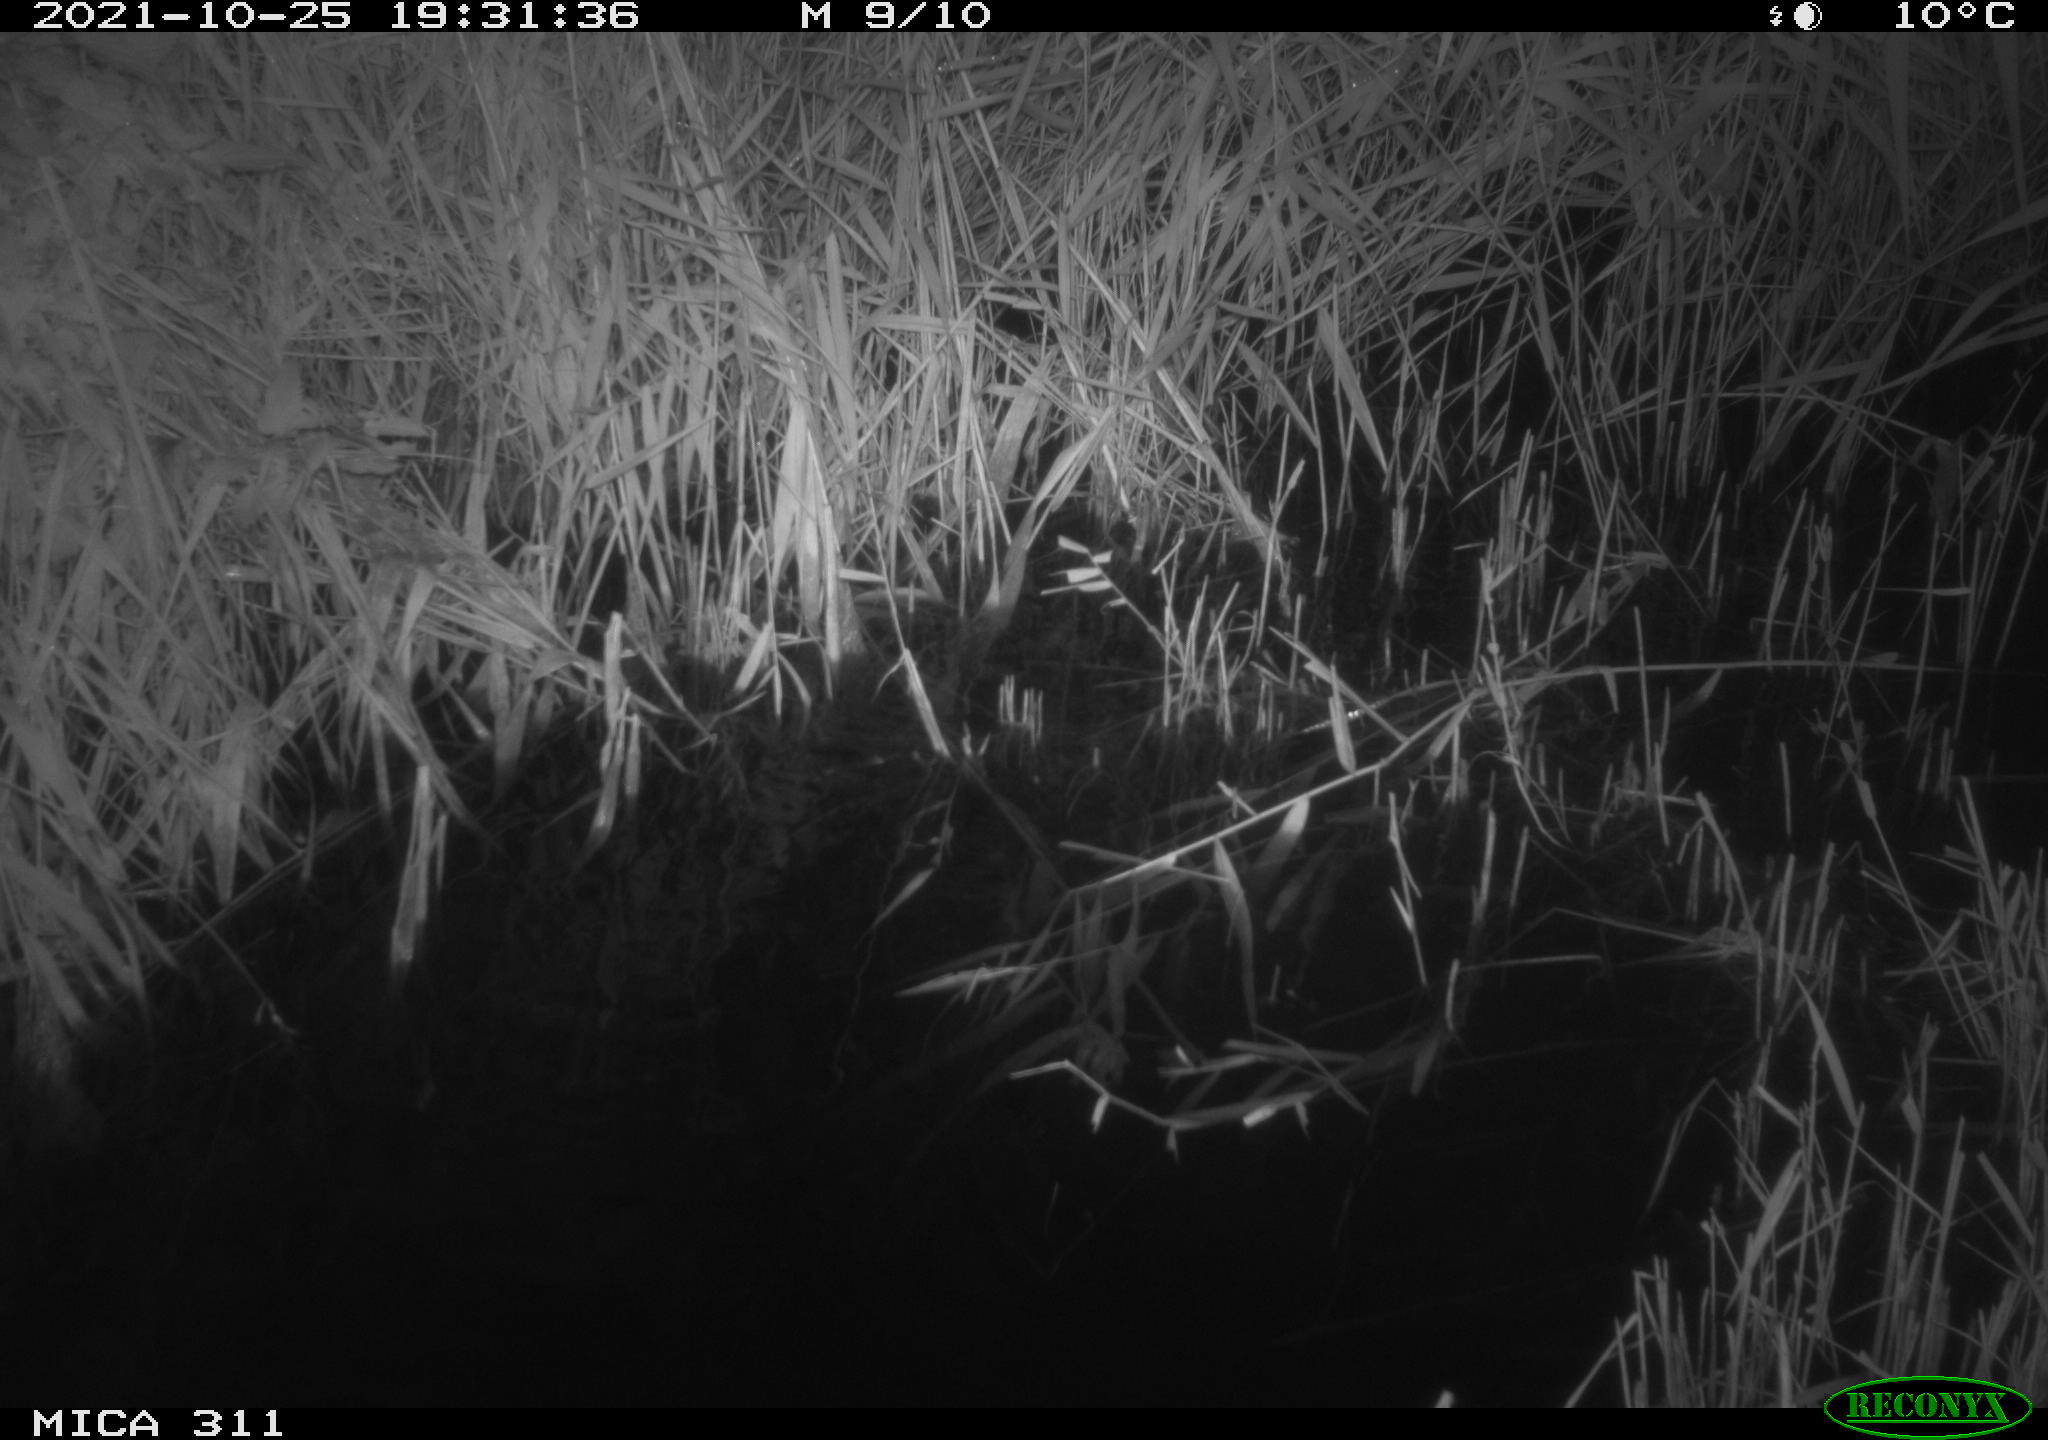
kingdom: Animalia
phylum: Chordata
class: Mammalia
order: Rodentia
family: Muridae
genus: Rattus
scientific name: Rattus norvegicus
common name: Brown rat
